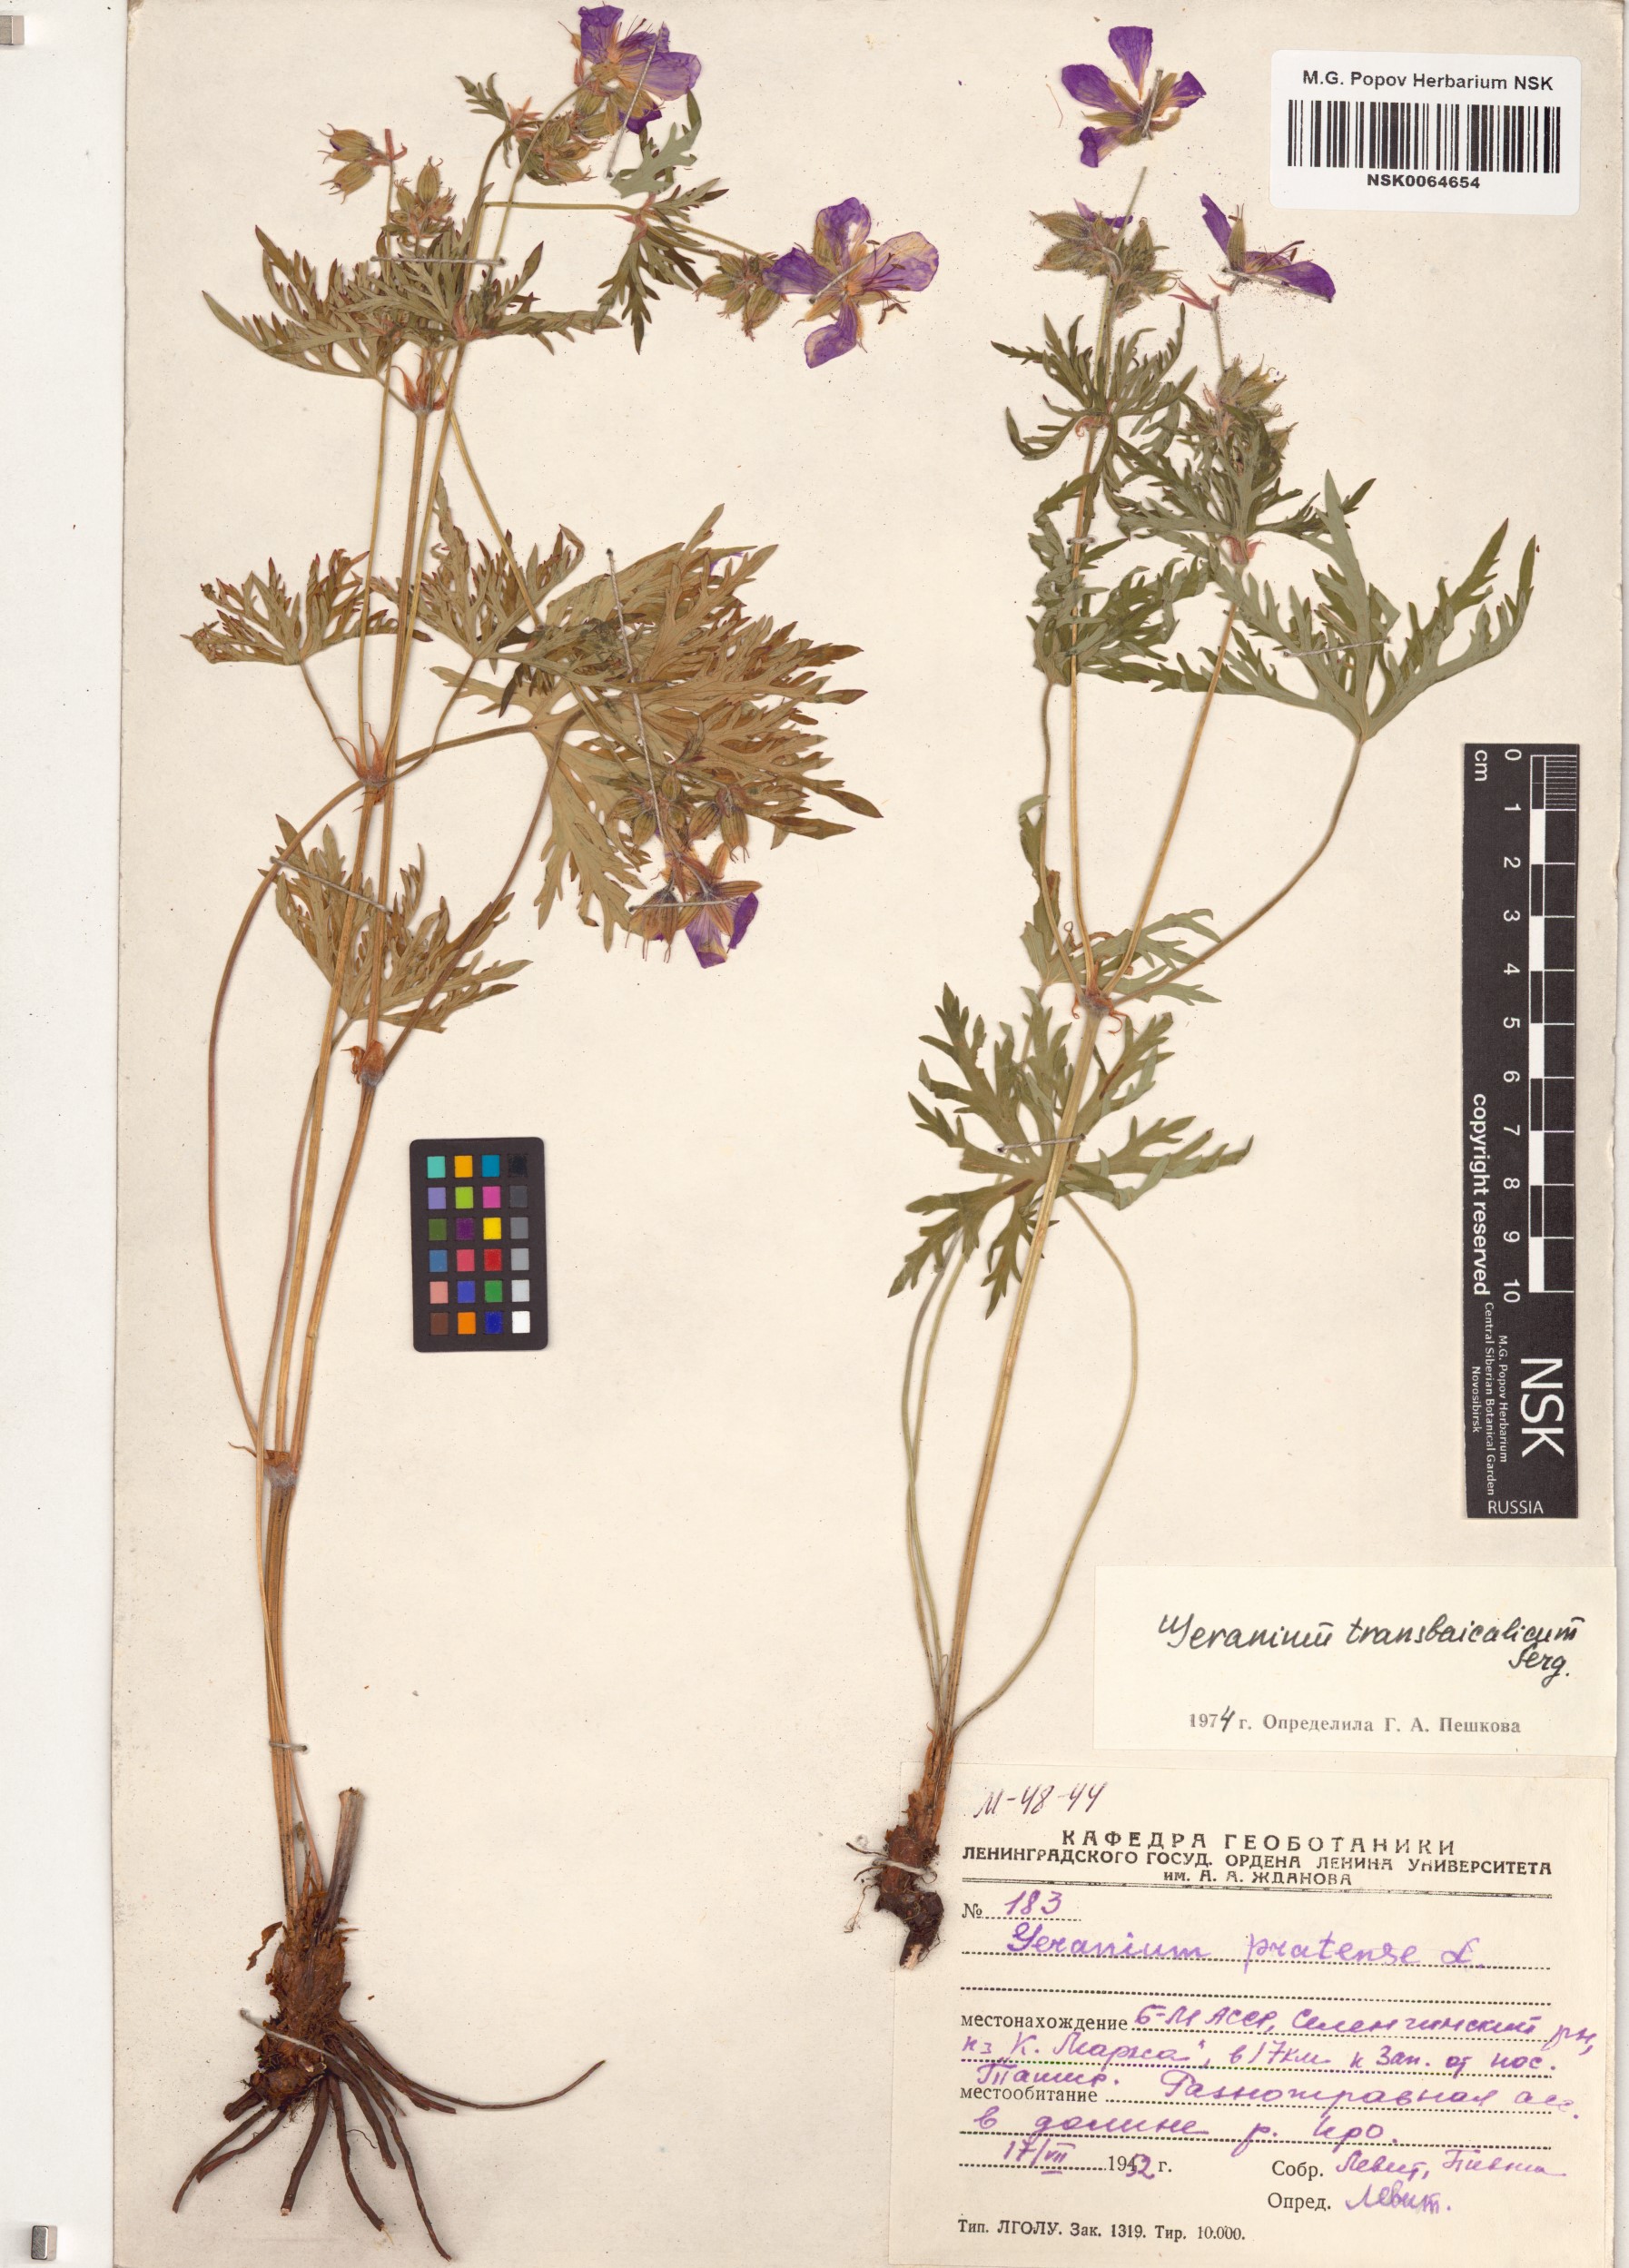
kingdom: Plantae
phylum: Tracheophyta
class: Magnoliopsida
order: Geraniales
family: Geraniaceae
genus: Geranium
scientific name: Geranium pratense
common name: Meadow crane's-bill
